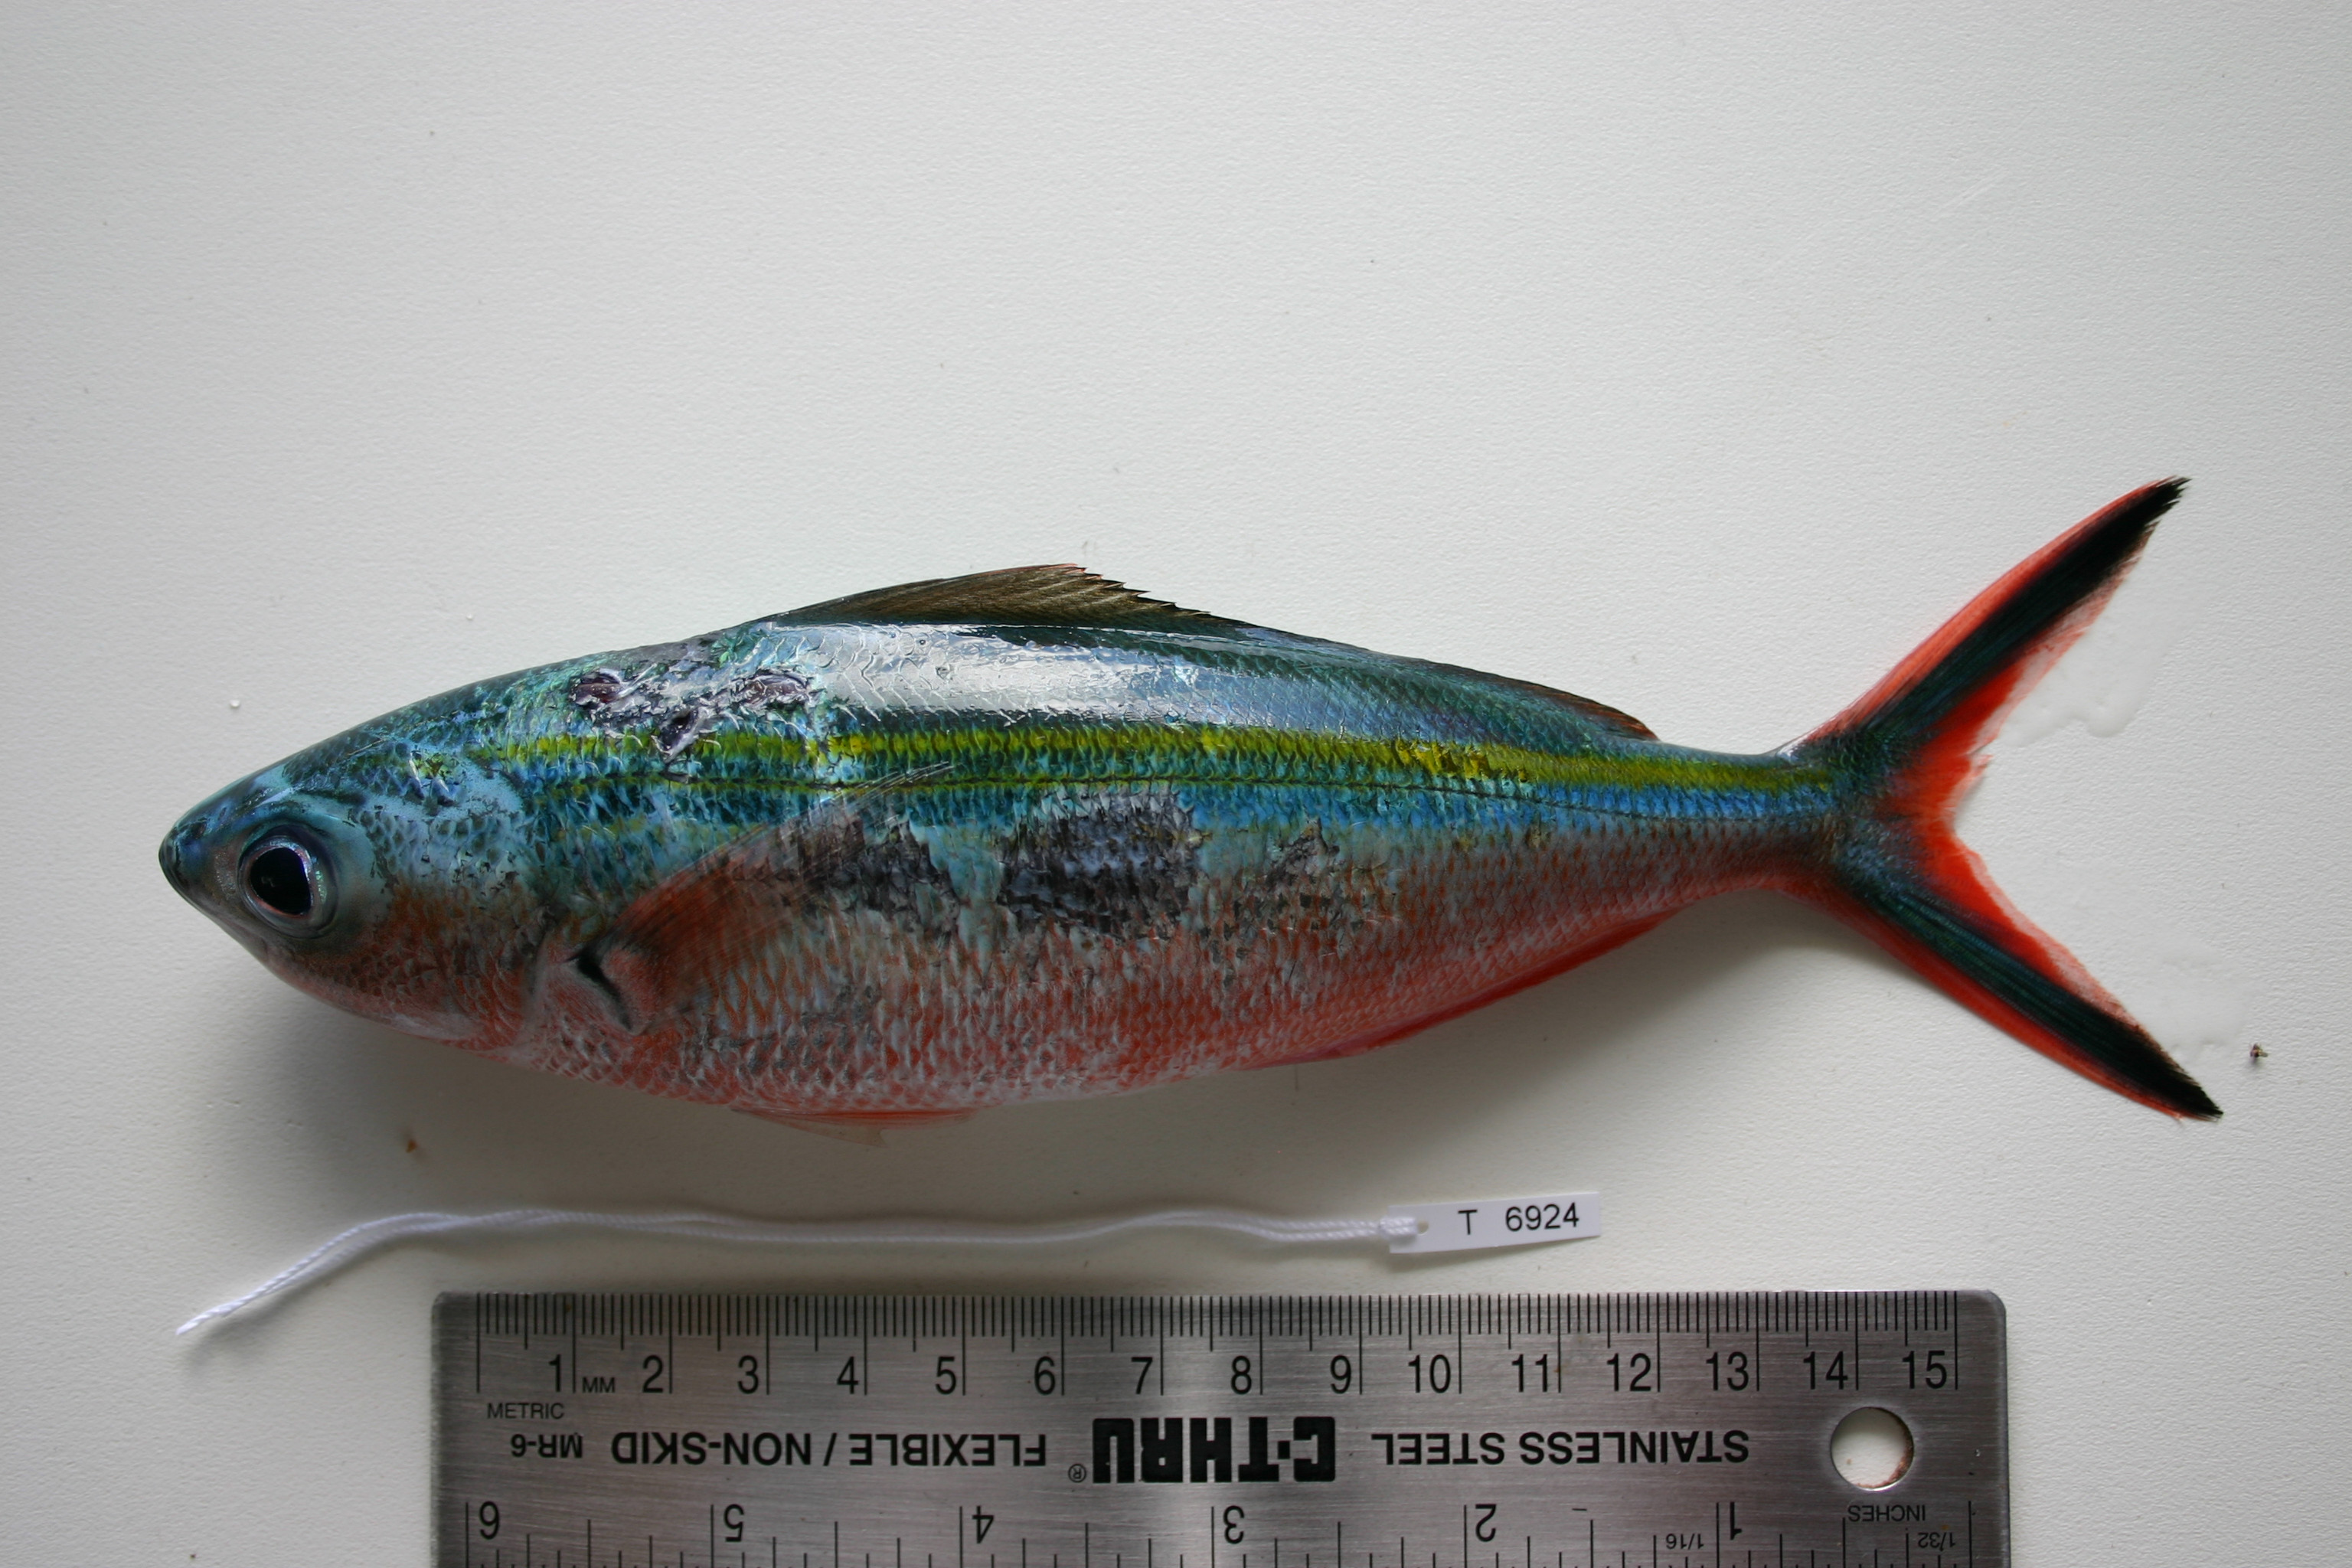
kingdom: Animalia
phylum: Chordata
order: Perciformes
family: Caesionidae
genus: Caesio
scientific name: Caesio caerulaurea
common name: Blue and gold fusilier
